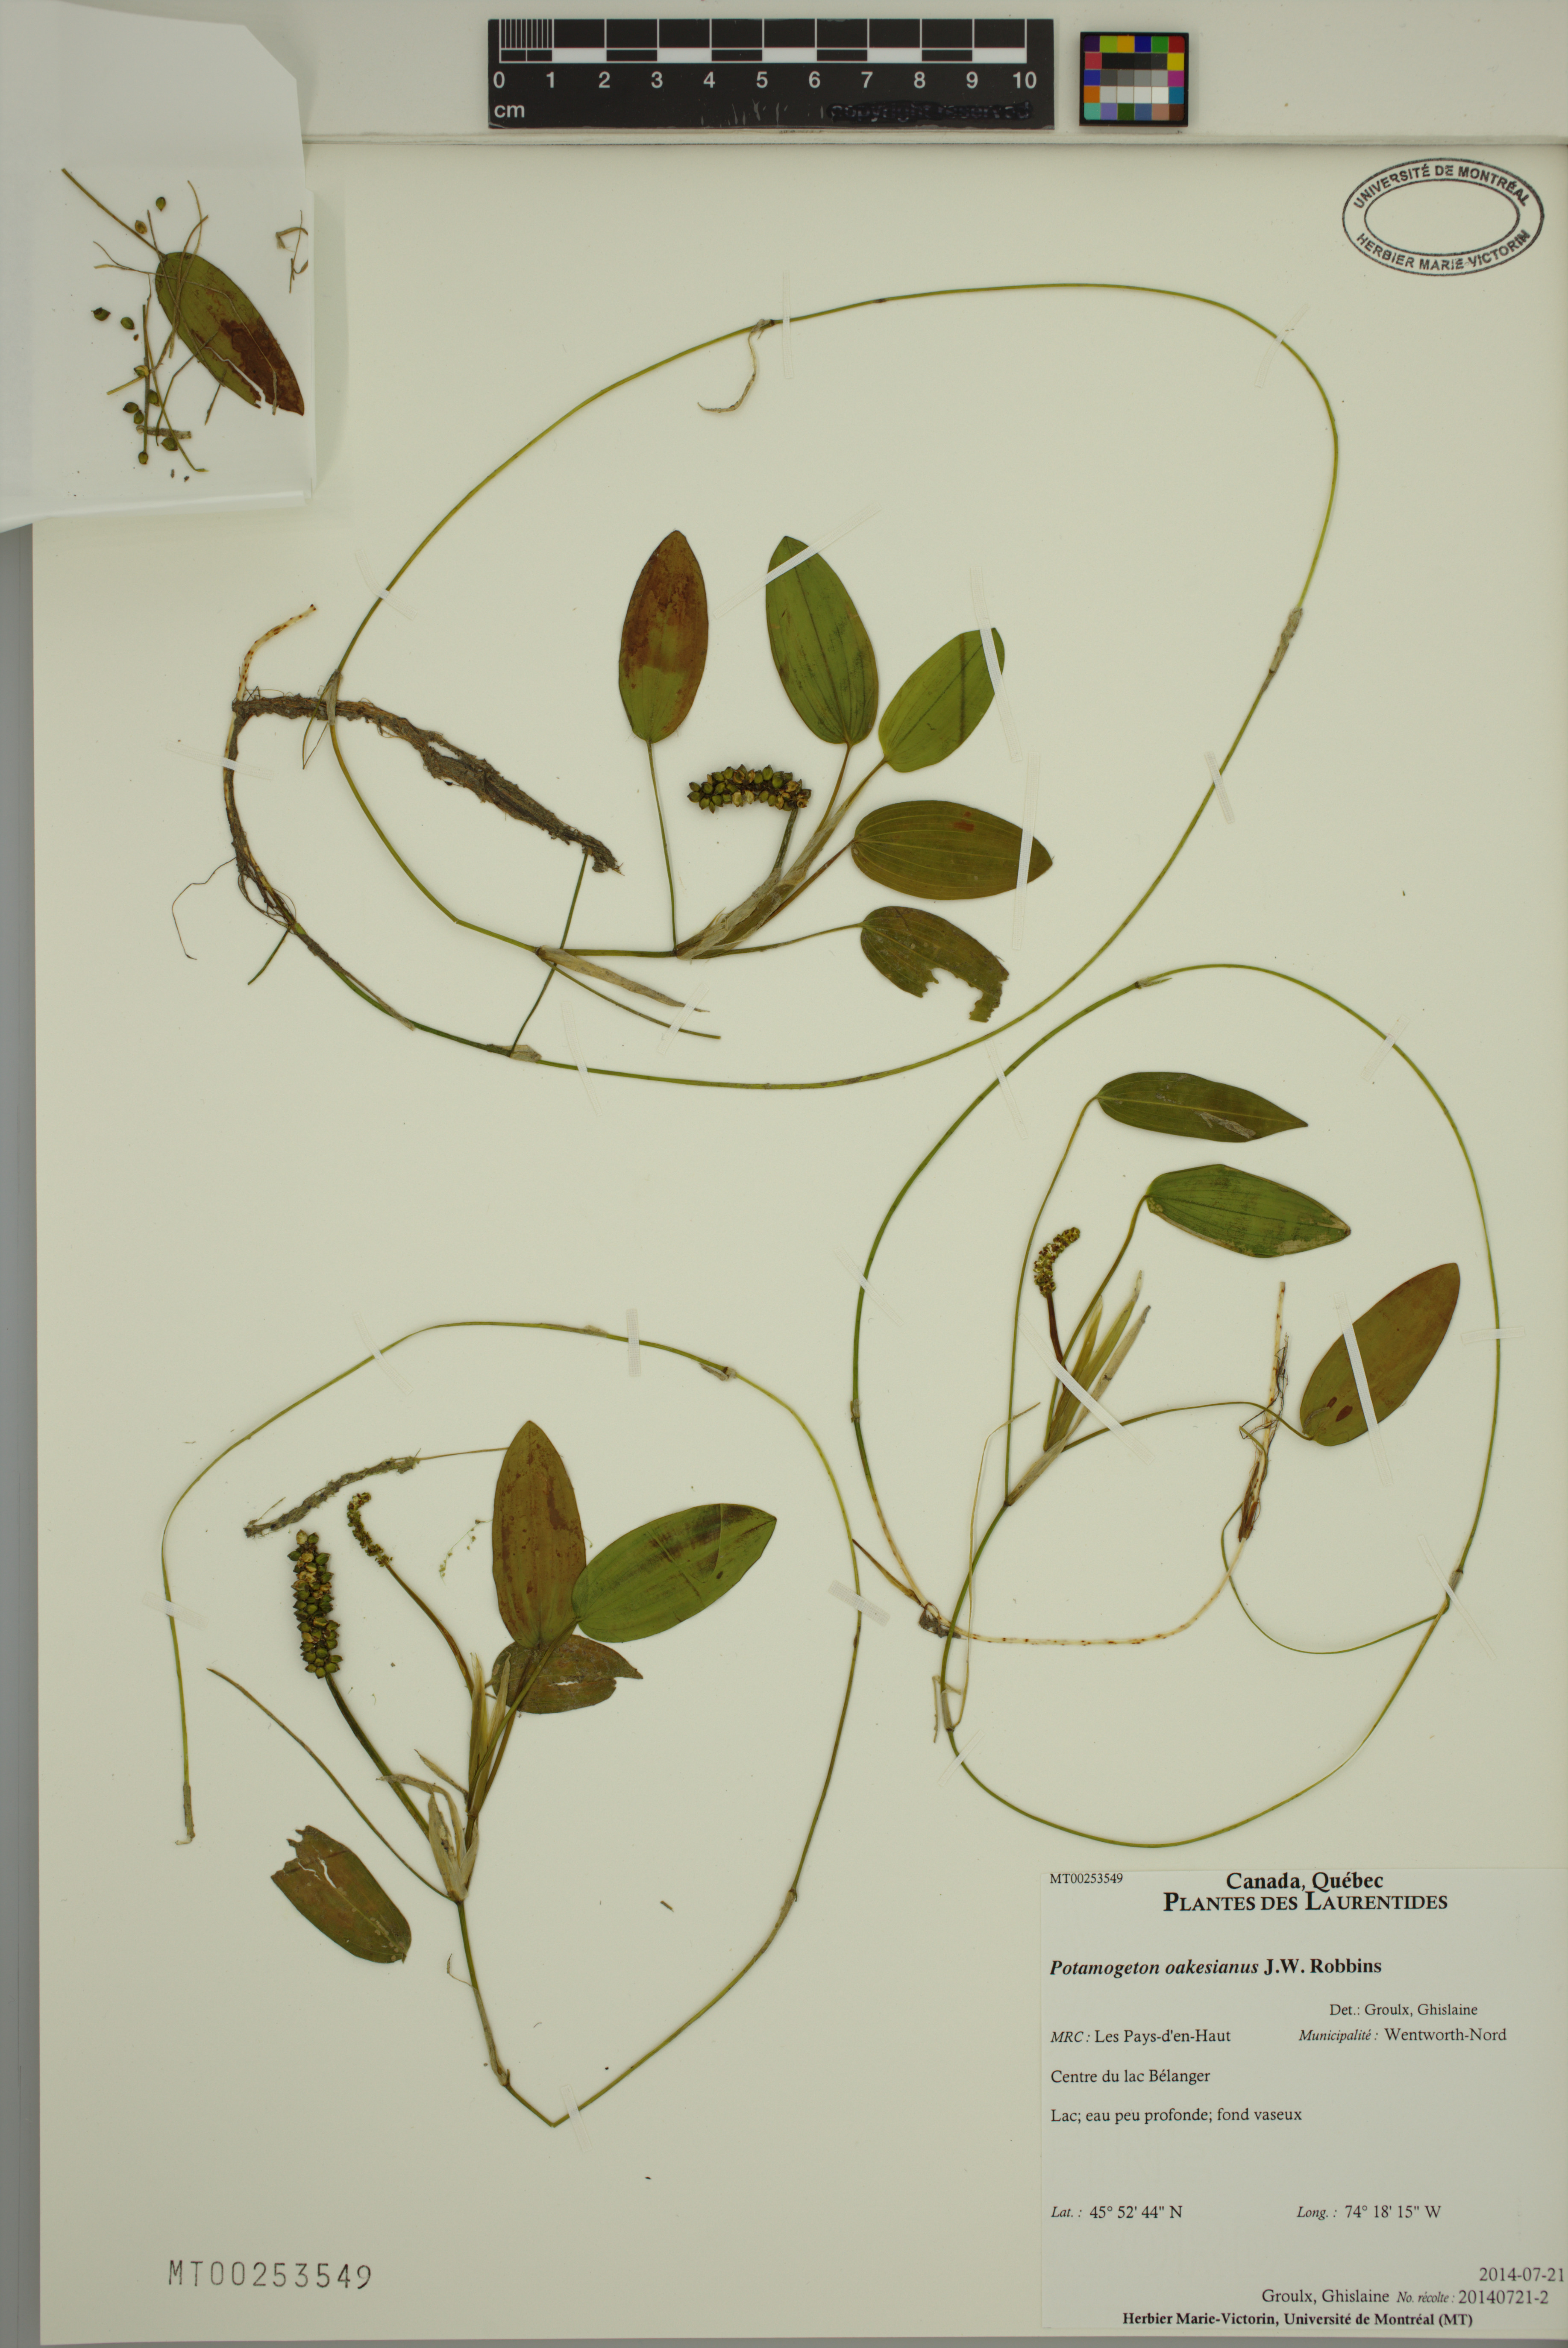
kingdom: Plantae
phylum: Tracheophyta
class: Liliopsida
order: Alismatales
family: Potamogetonaceae
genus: Potamogeton
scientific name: Potamogeton oakesianus
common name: Oakes' pondweed
